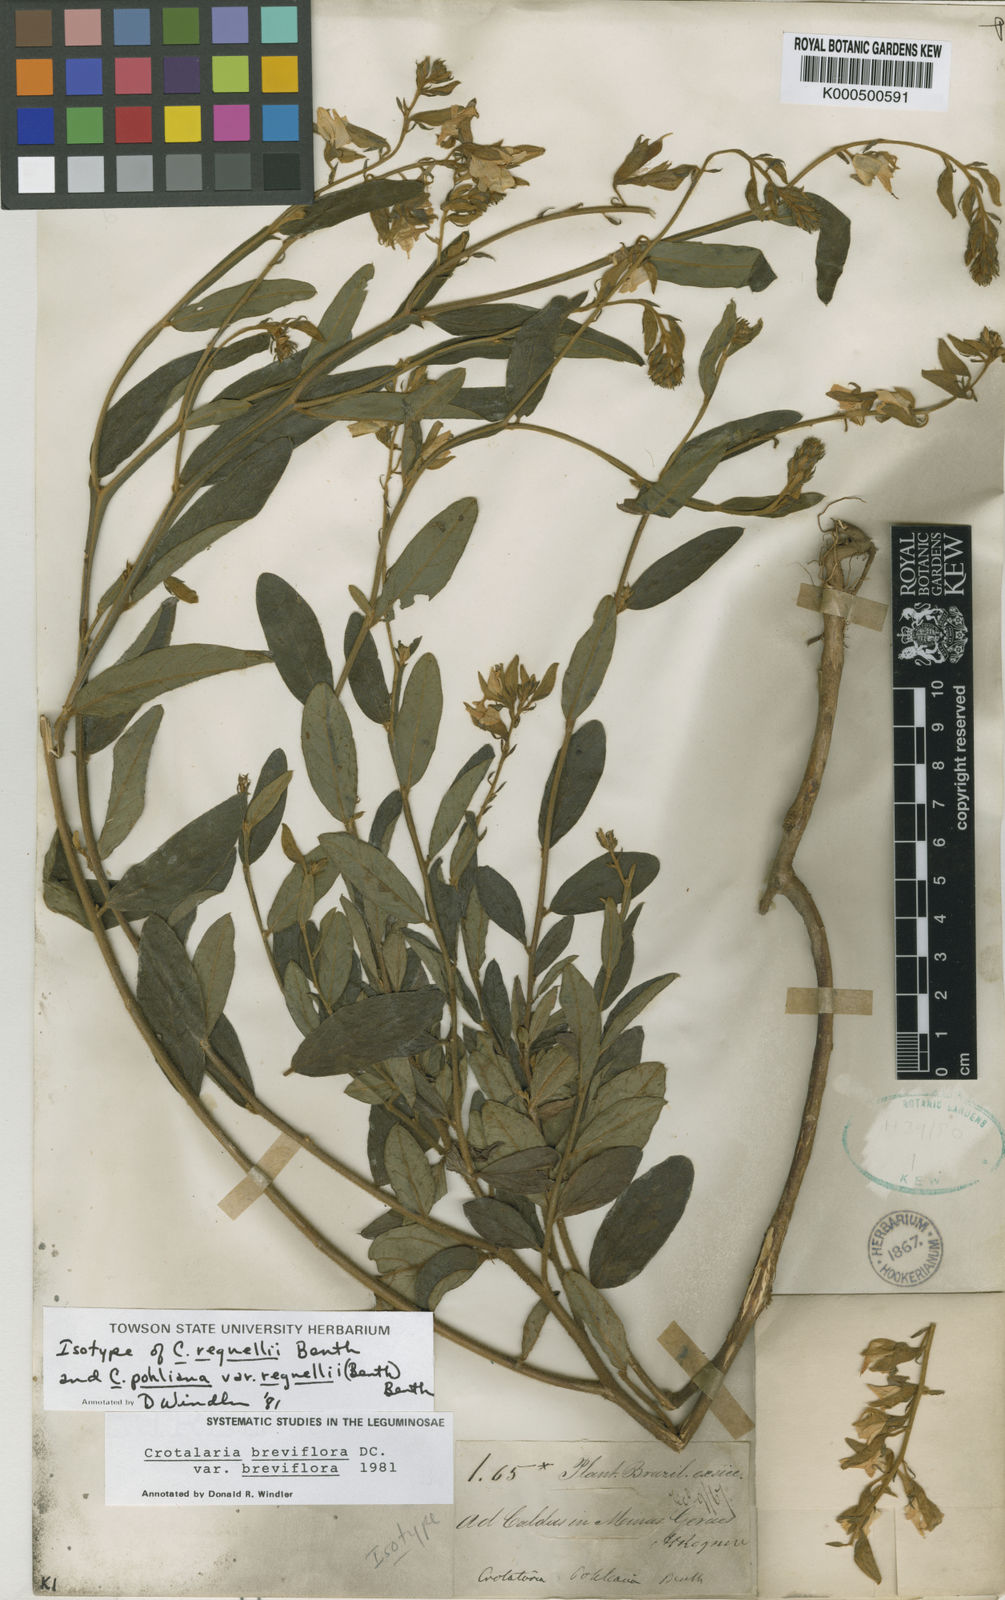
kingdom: Plantae
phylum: Tracheophyta
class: Magnoliopsida
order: Fabales
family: Fabaceae
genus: Crotalaria
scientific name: Crotalaria breviflora
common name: Short-flower crotalaria
